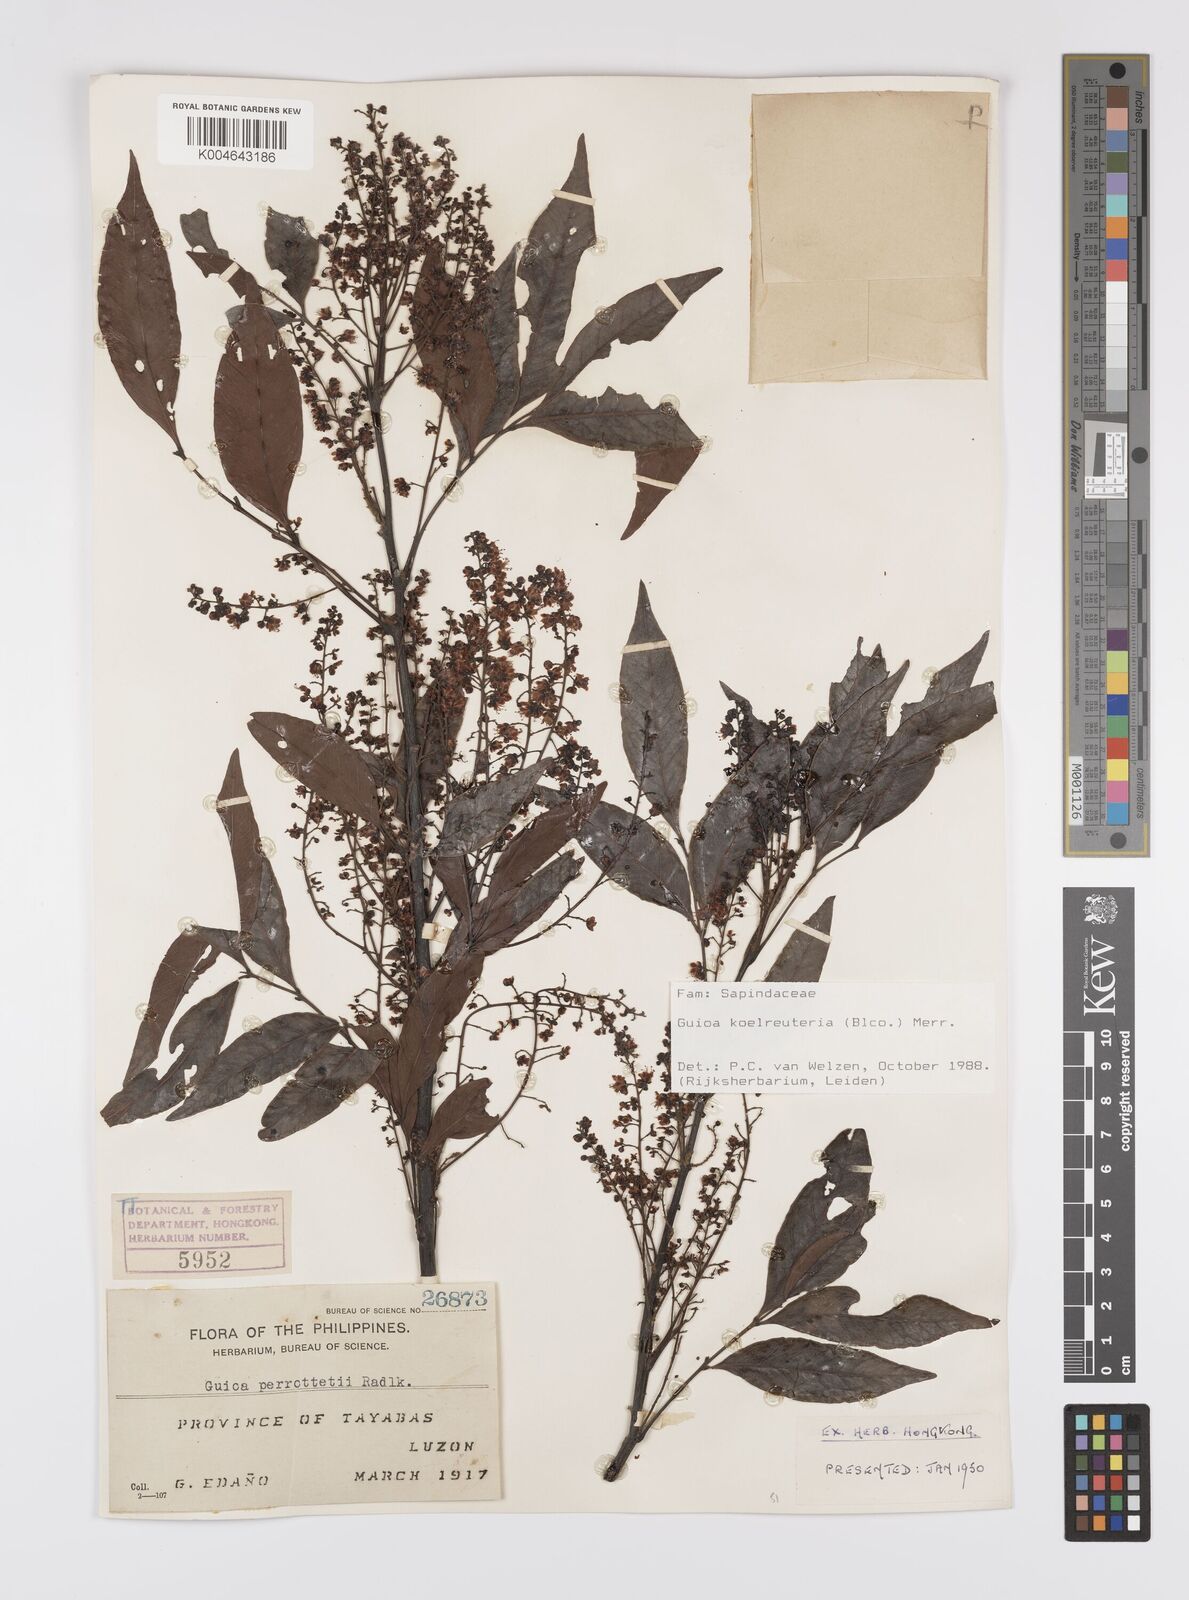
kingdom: Plantae
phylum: Tracheophyta
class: Magnoliopsida
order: Sapindales
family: Sapindaceae
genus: Guioa
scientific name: Guioa koelreuteria
